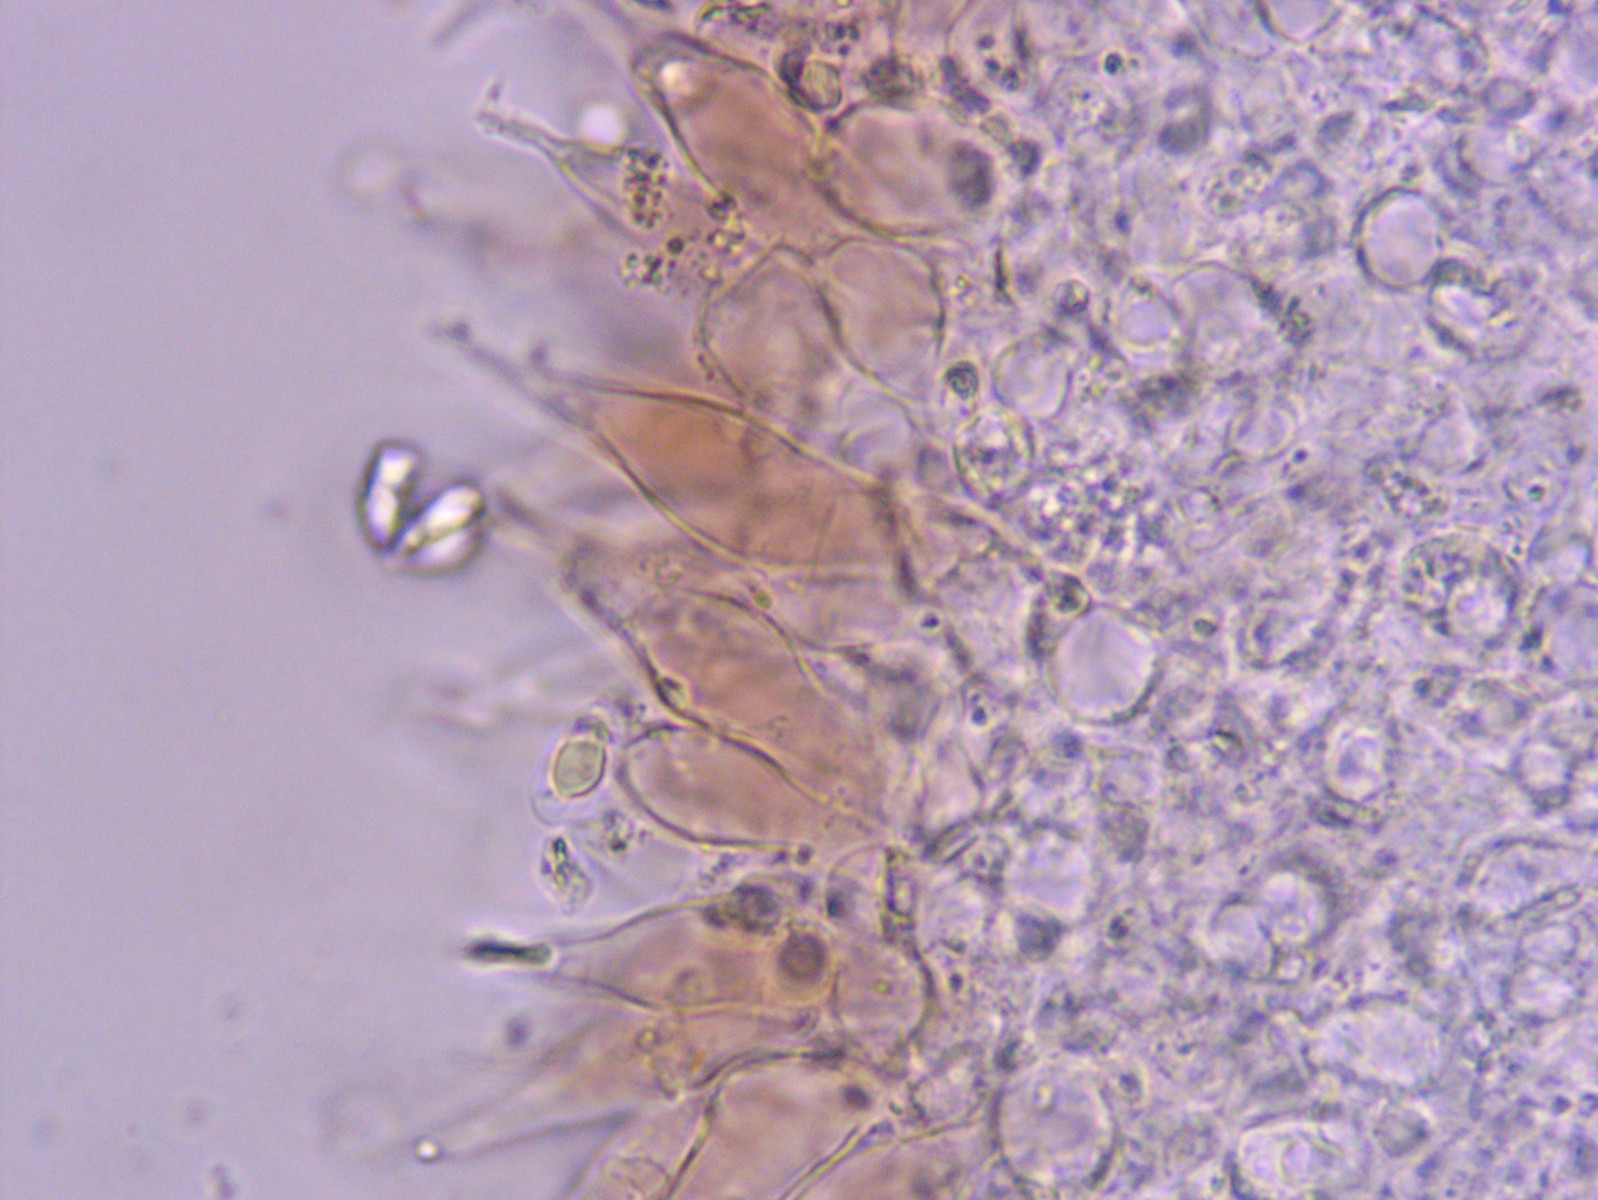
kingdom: Fungi
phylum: Basidiomycota
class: Agaricomycetes
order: Agaricales
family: Mycenaceae
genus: Mycena
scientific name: Mycena sanguinolenta
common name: rødmælket huesvamp
